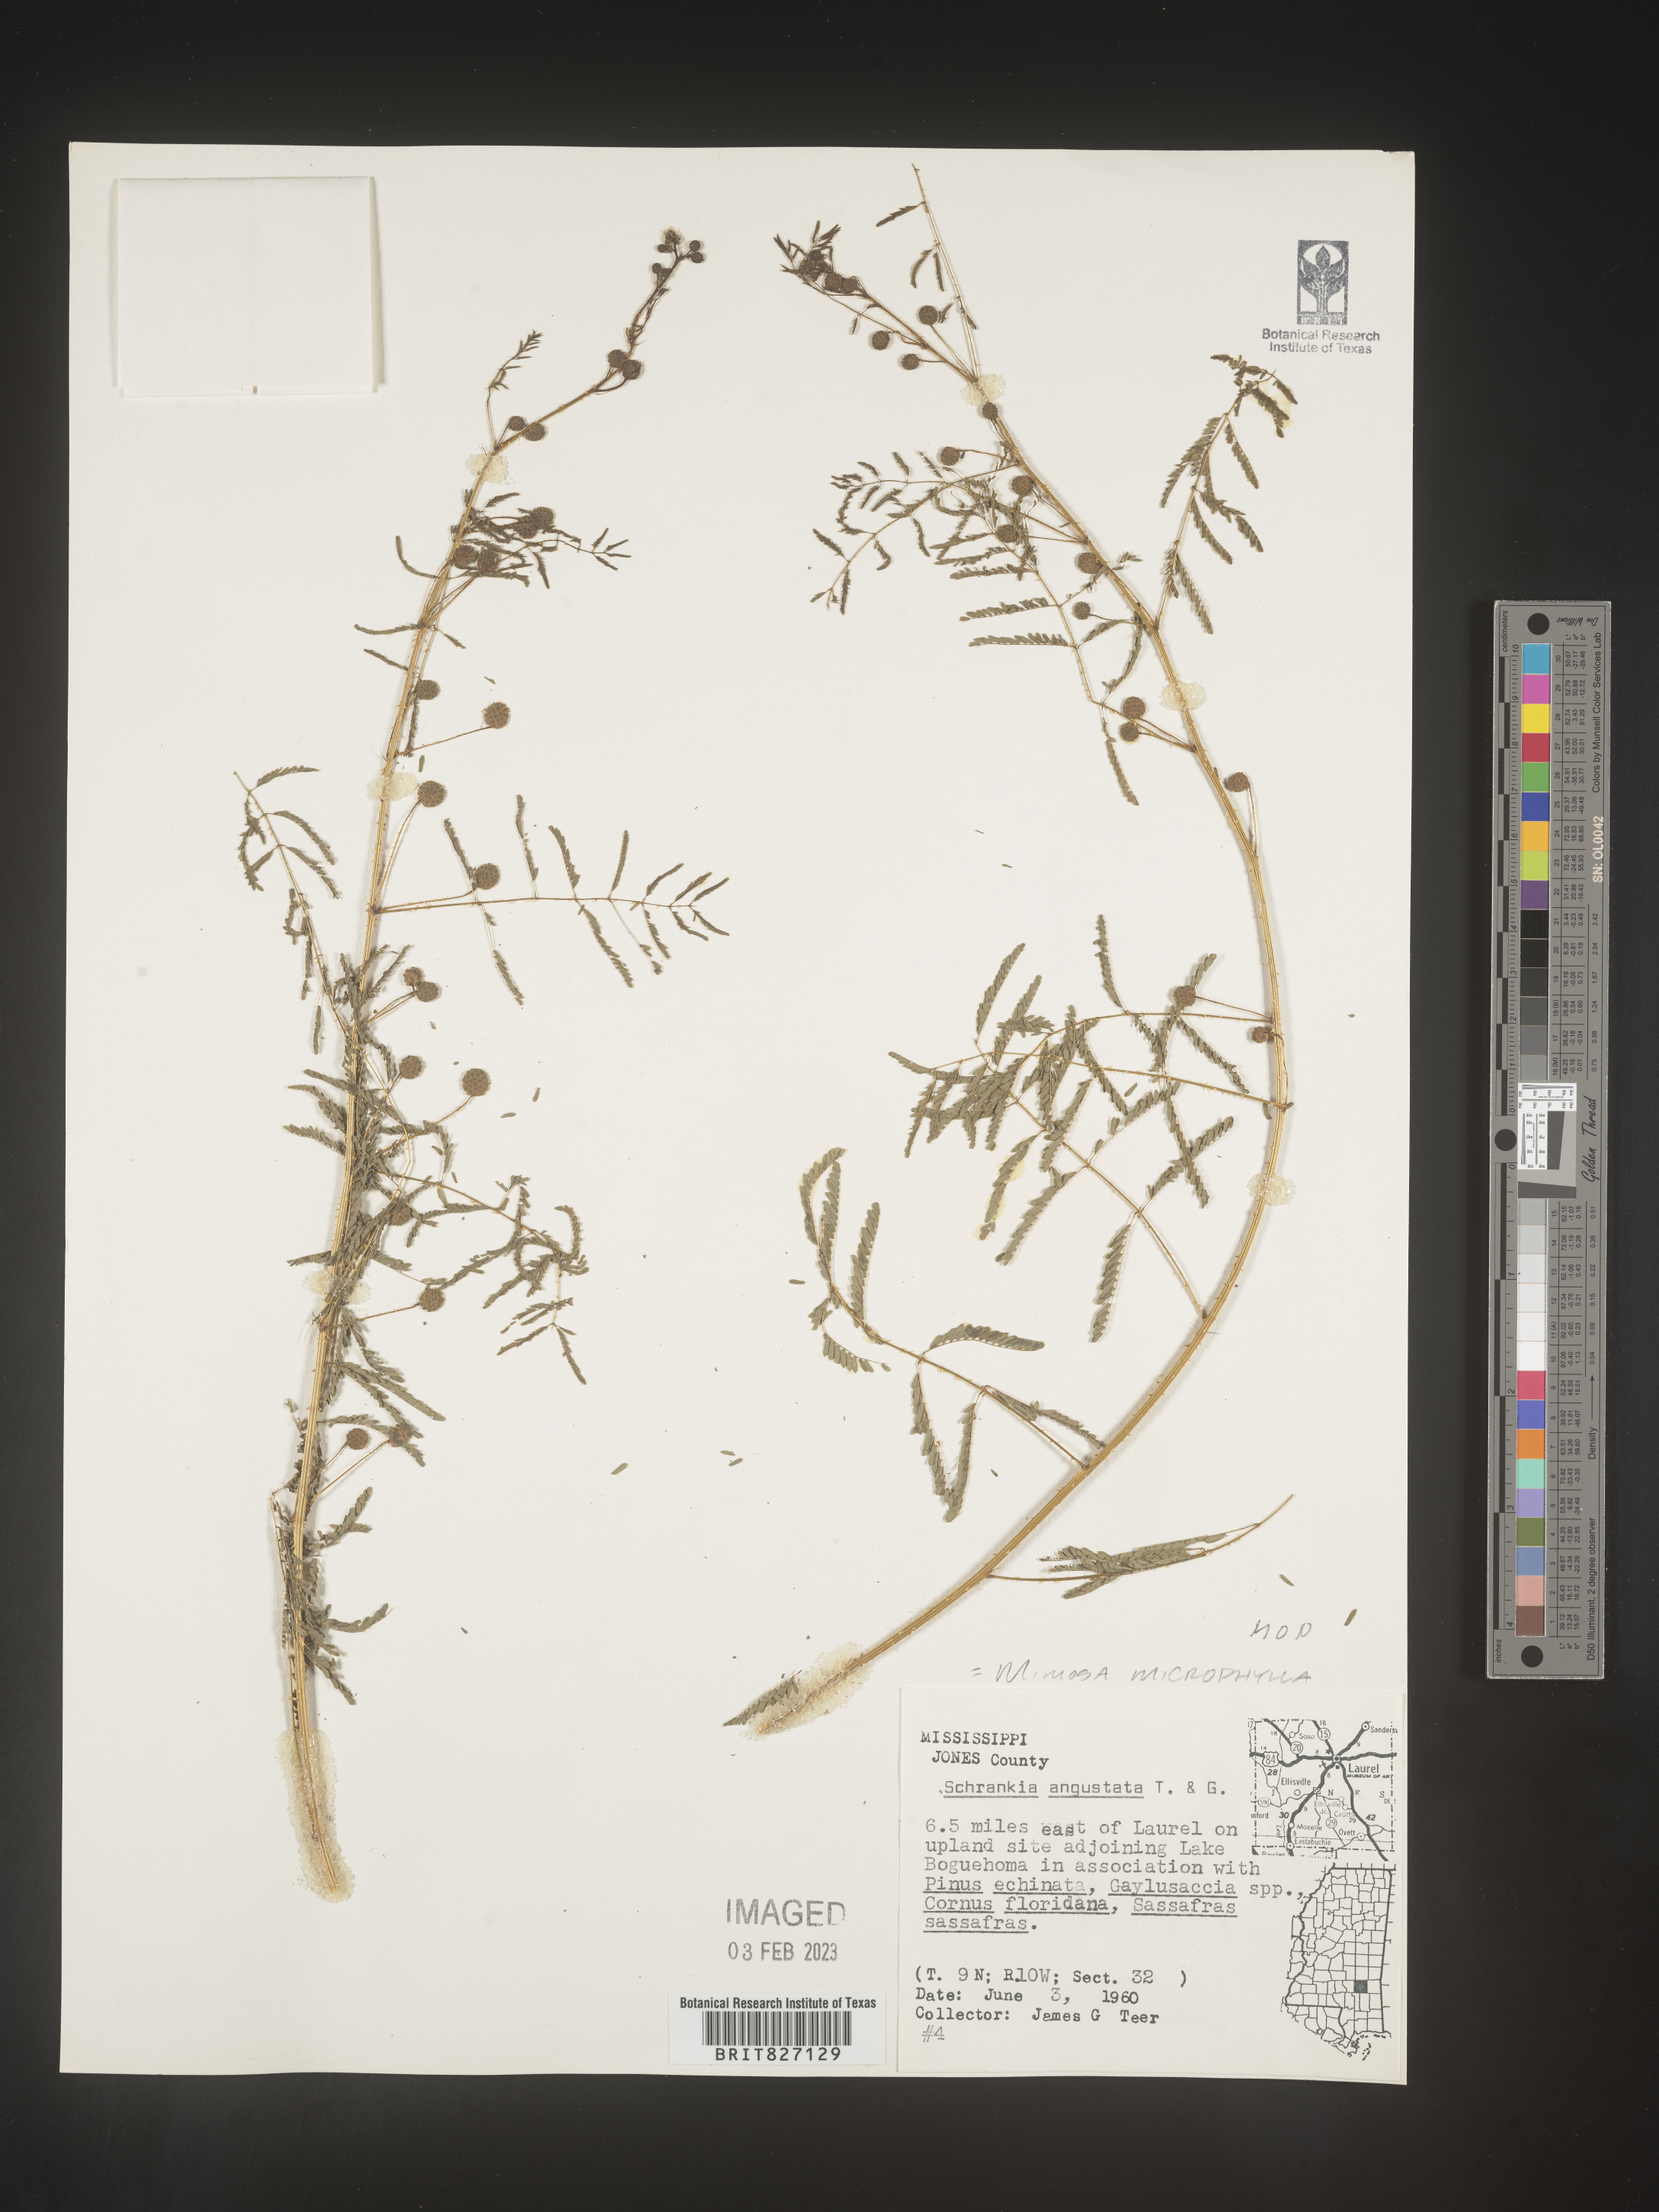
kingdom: Plantae
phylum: Tracheophyta
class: Magnoliopsida
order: Fabales
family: Fabaceae
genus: Mimosa
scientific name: Mimosa quadrivalvis
